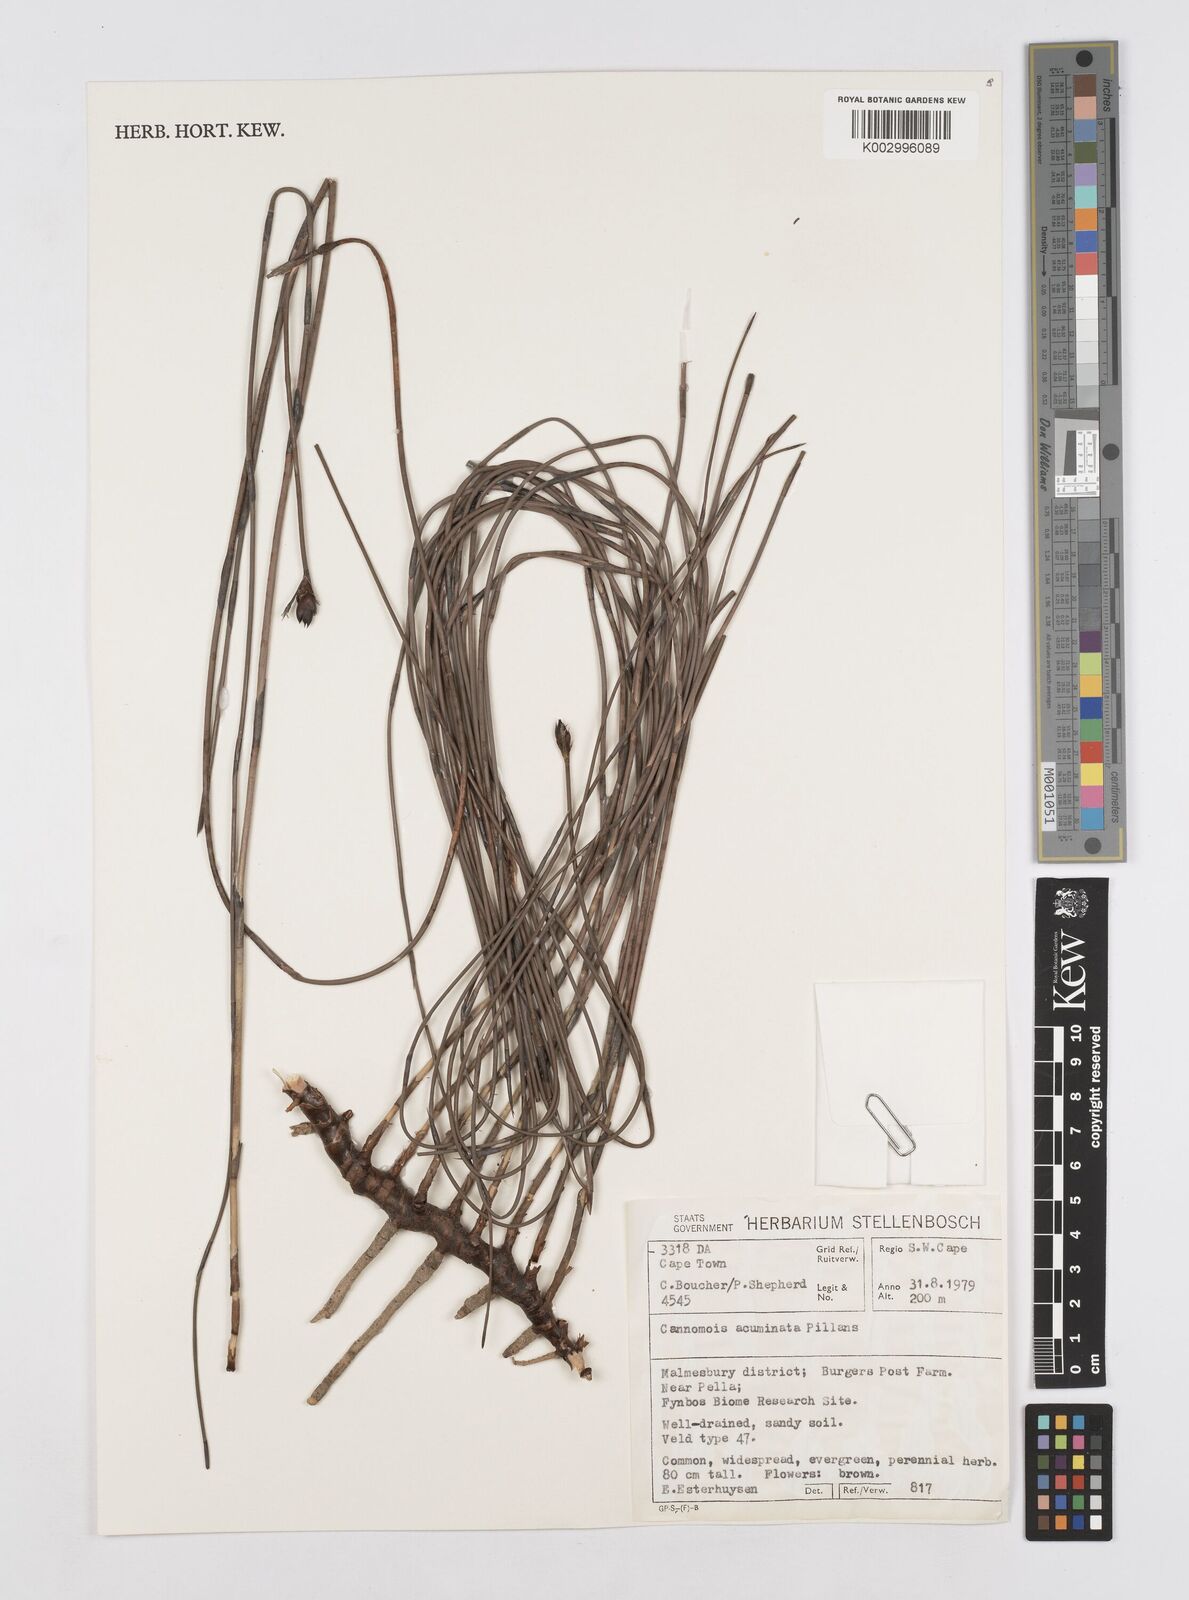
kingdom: Plantae
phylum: Tracheophyta
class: Liliopsida
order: Poales
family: Restionaceae
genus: Cannomois
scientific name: Cannomois parviflora
